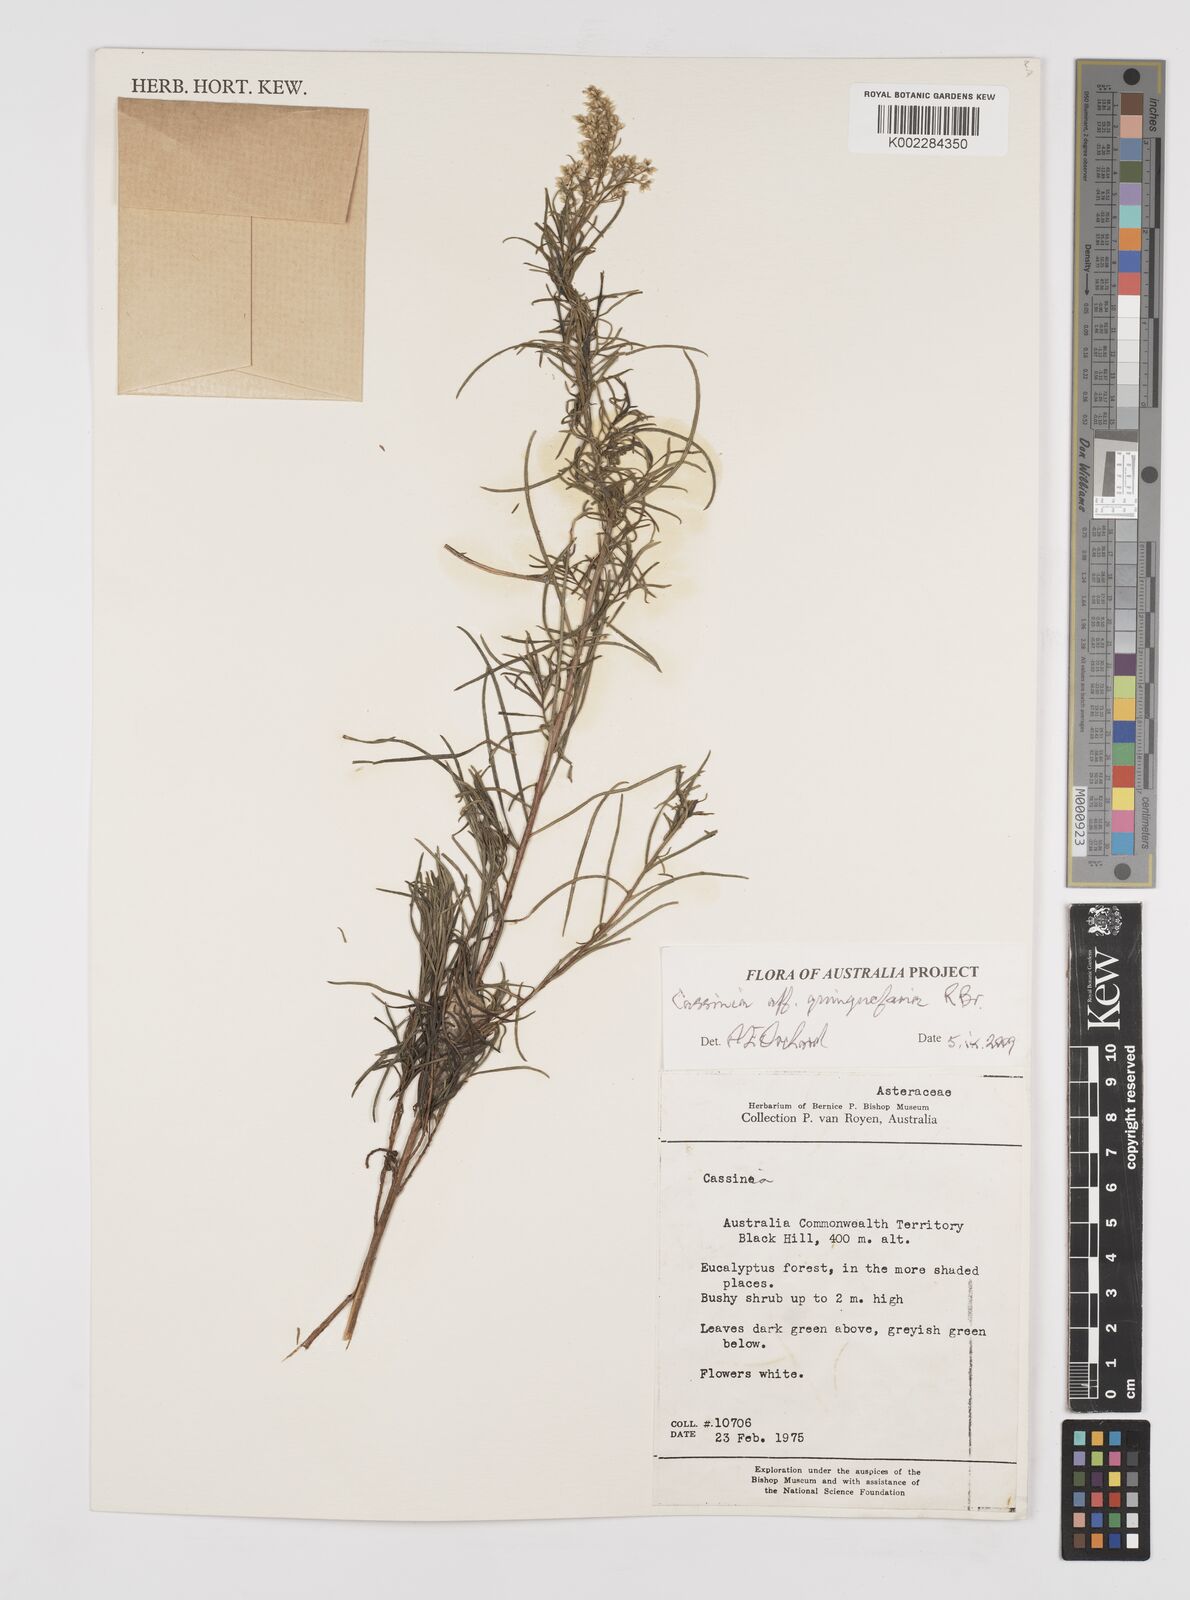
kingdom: Plantae
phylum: Tracheophyta
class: Magnoliopsida
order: Asterales
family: Asteraceae
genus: Cassinia
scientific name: Cassinia quinquefaria
